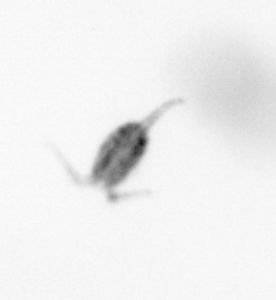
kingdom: Animalia
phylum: Arthropoda
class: Copepoda
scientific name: Copepoda
